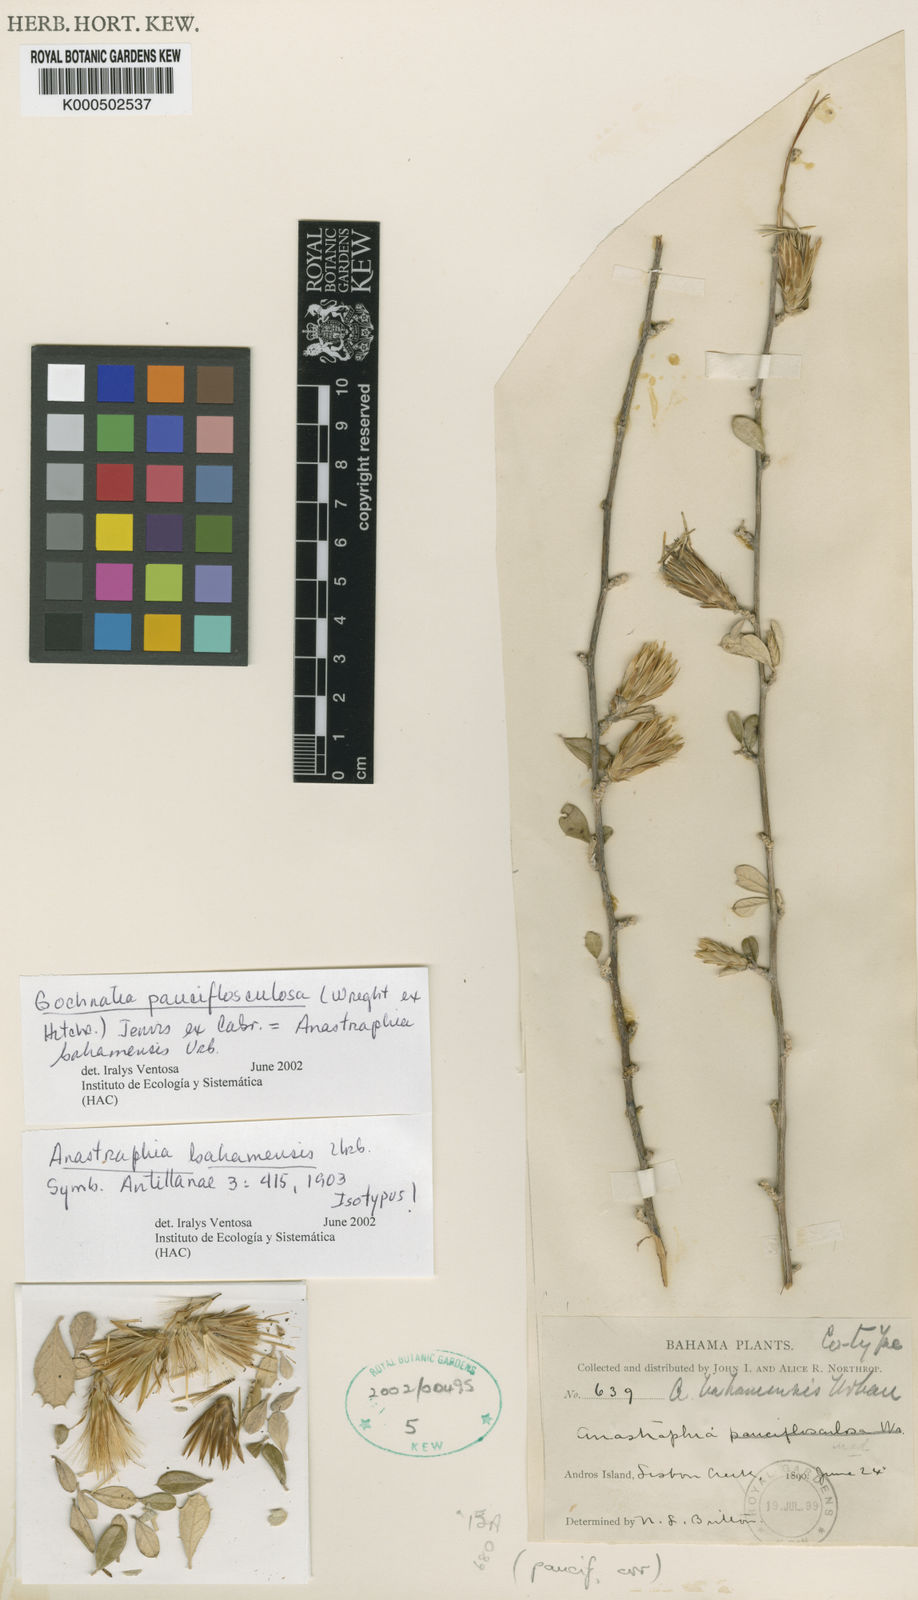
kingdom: Plantae
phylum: Tracheophyta
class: Magnoliopsida
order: Asterales
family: Asteraceae
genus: Anastraphia
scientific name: Anastraphia pauciflosculosa
